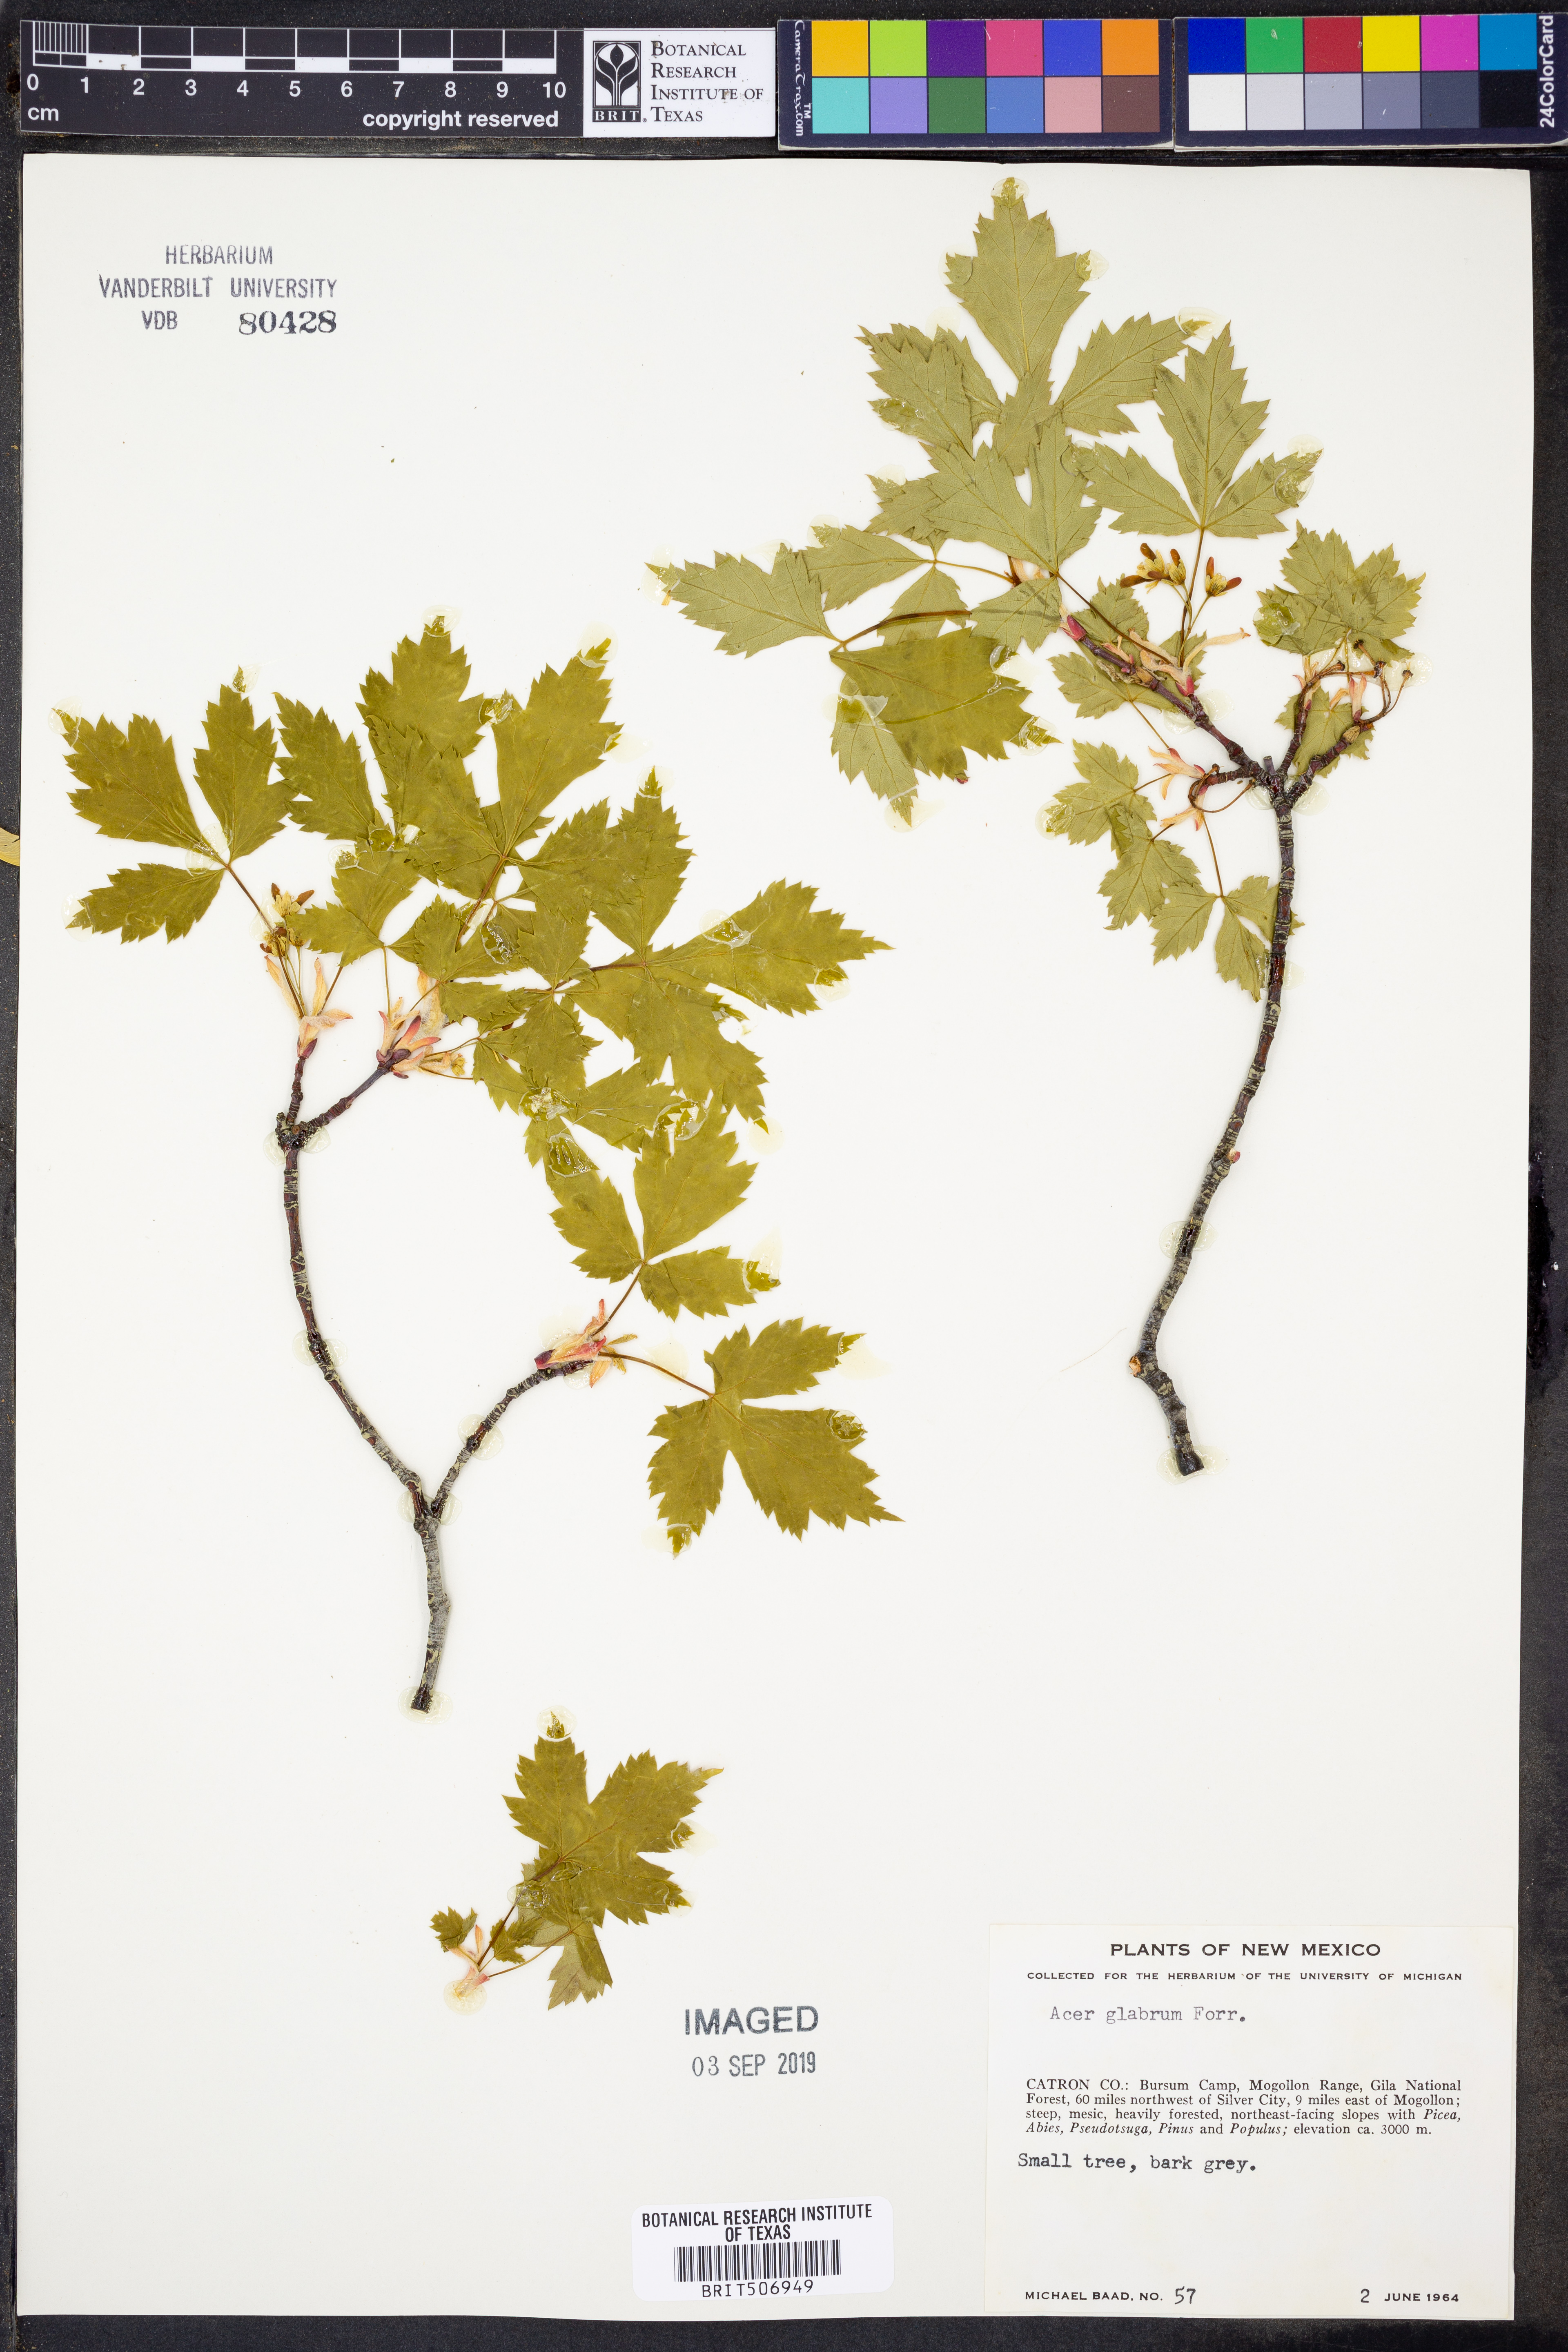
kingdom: Plantae
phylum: Tracheophyta
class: Magnoliopsida
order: Sapindales
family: Sapindaceae
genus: Acer
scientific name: Acer glabrum
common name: Rocky mountain maple
